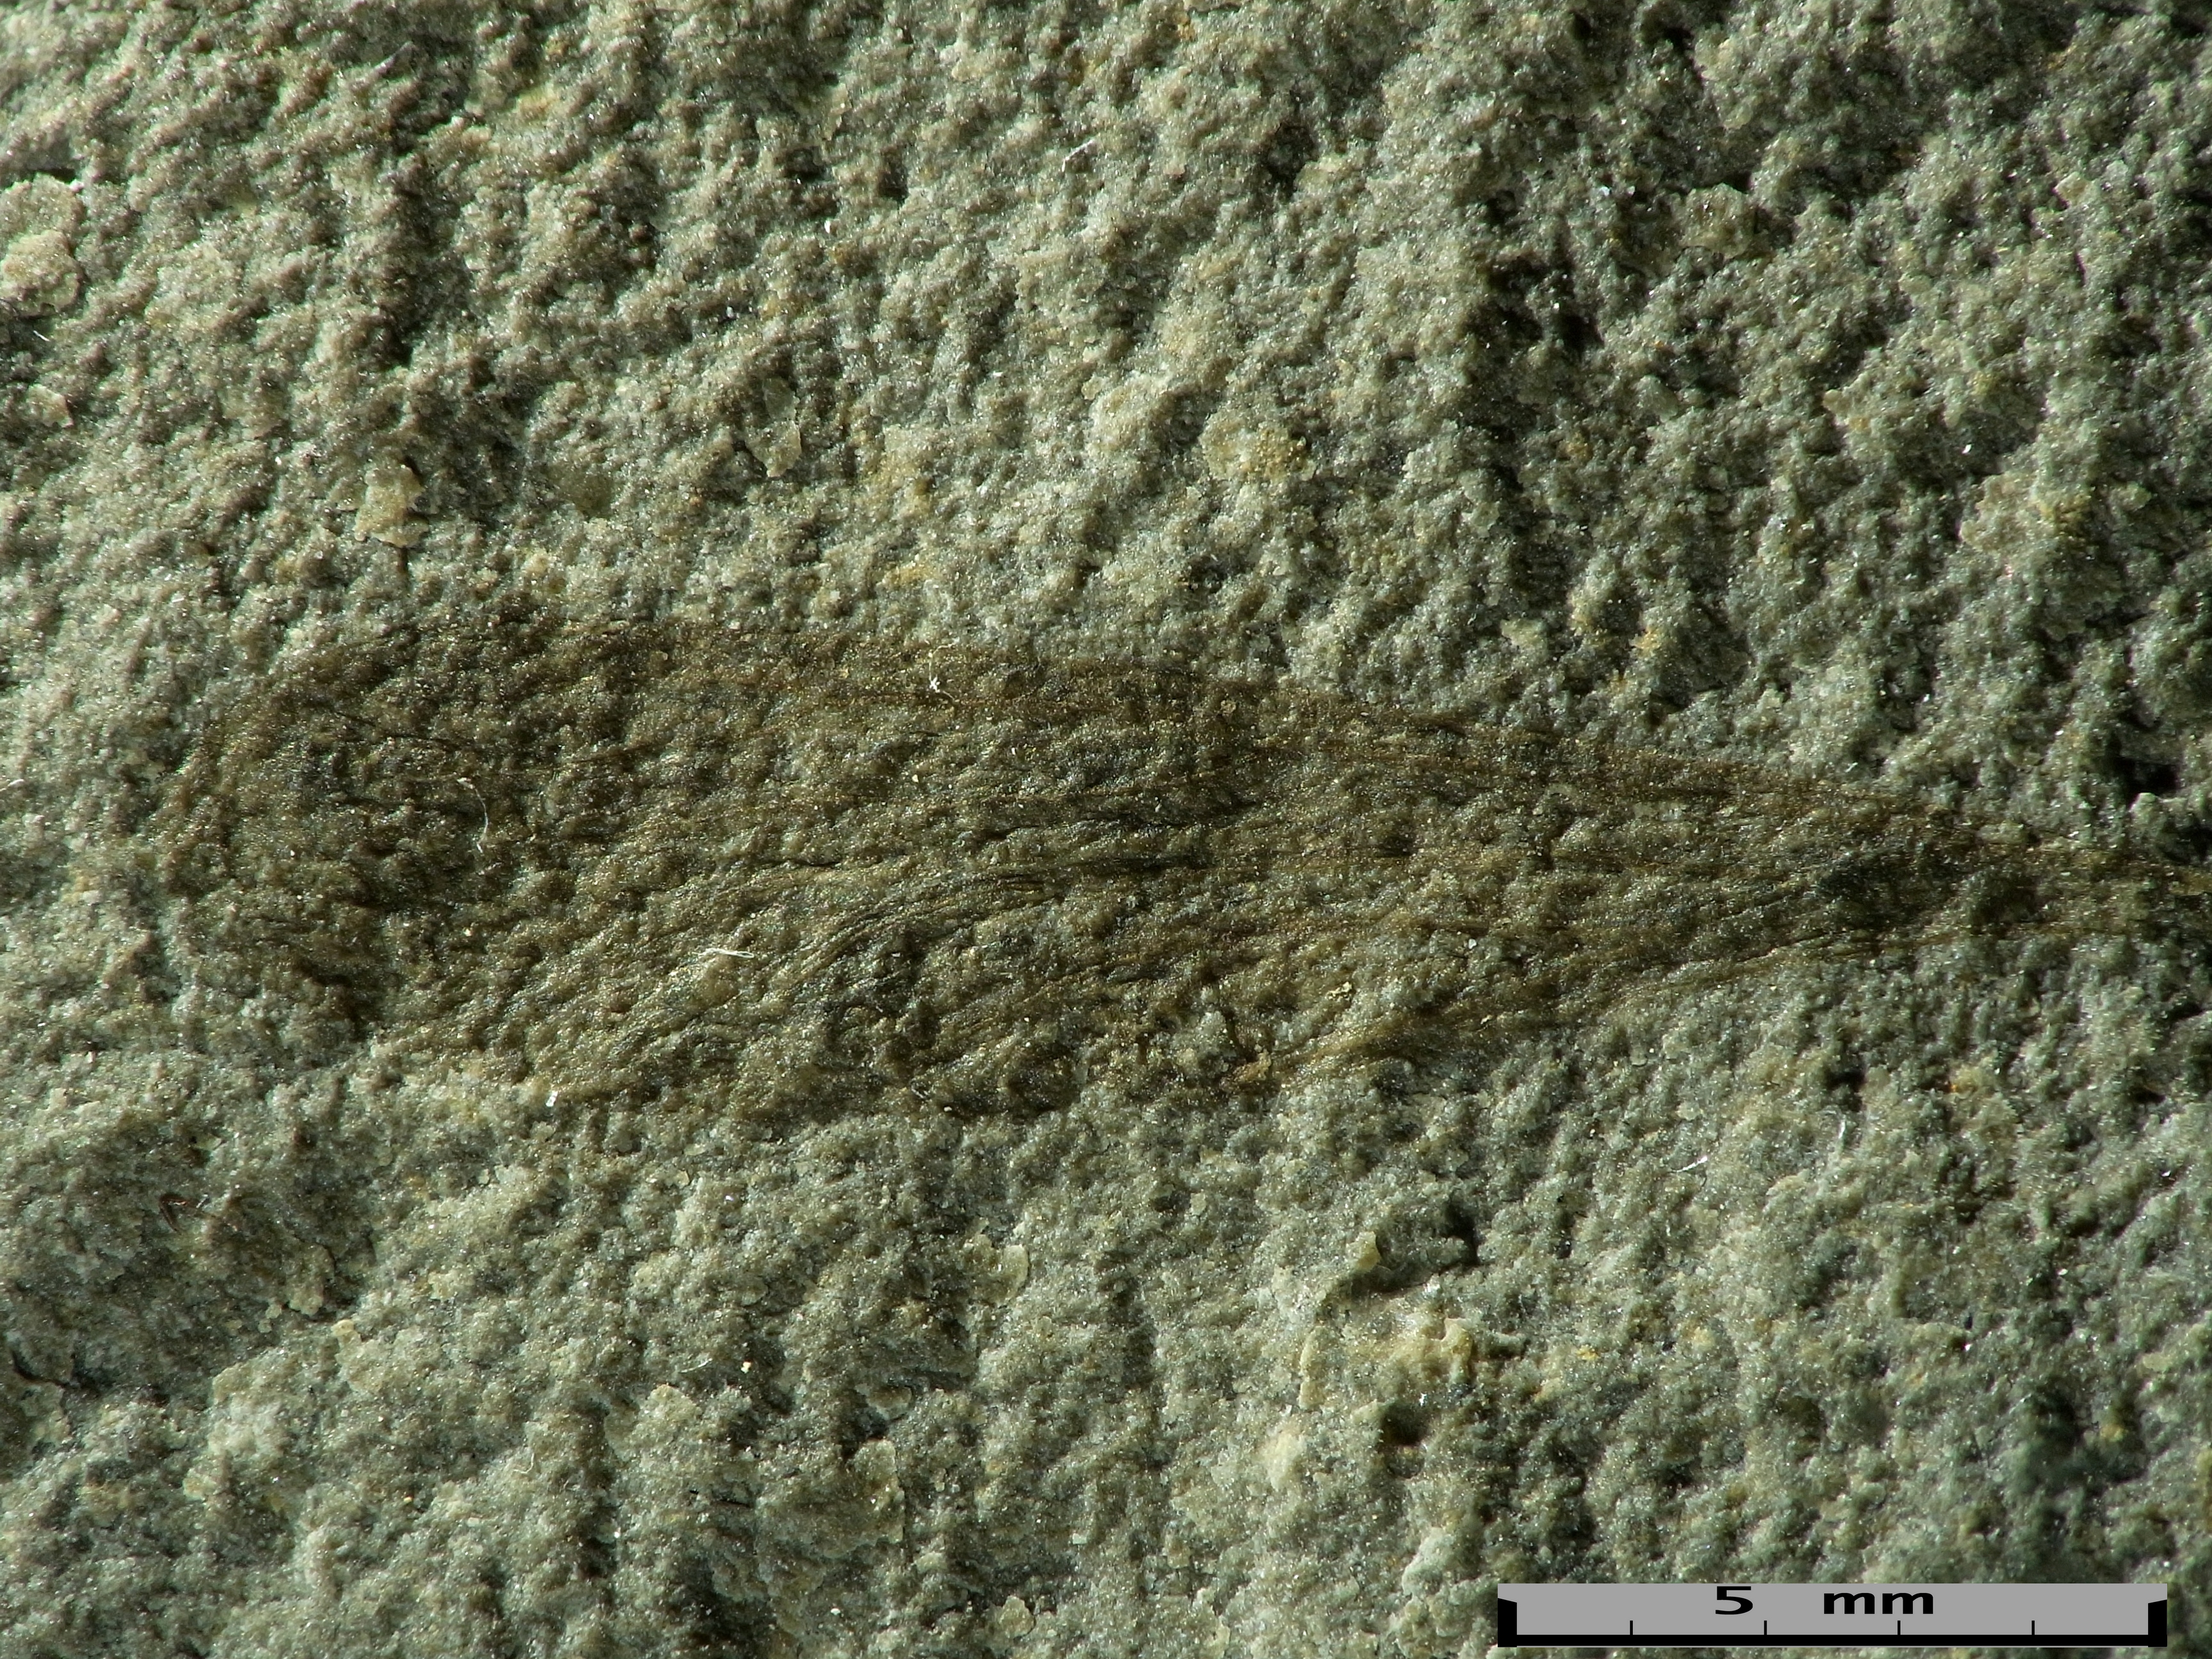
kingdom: Animalia
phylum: Arthropoda
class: Insecta
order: Hemiptera
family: Xulsigiidae
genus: Xulsigia
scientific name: Xulsigia karetsa
